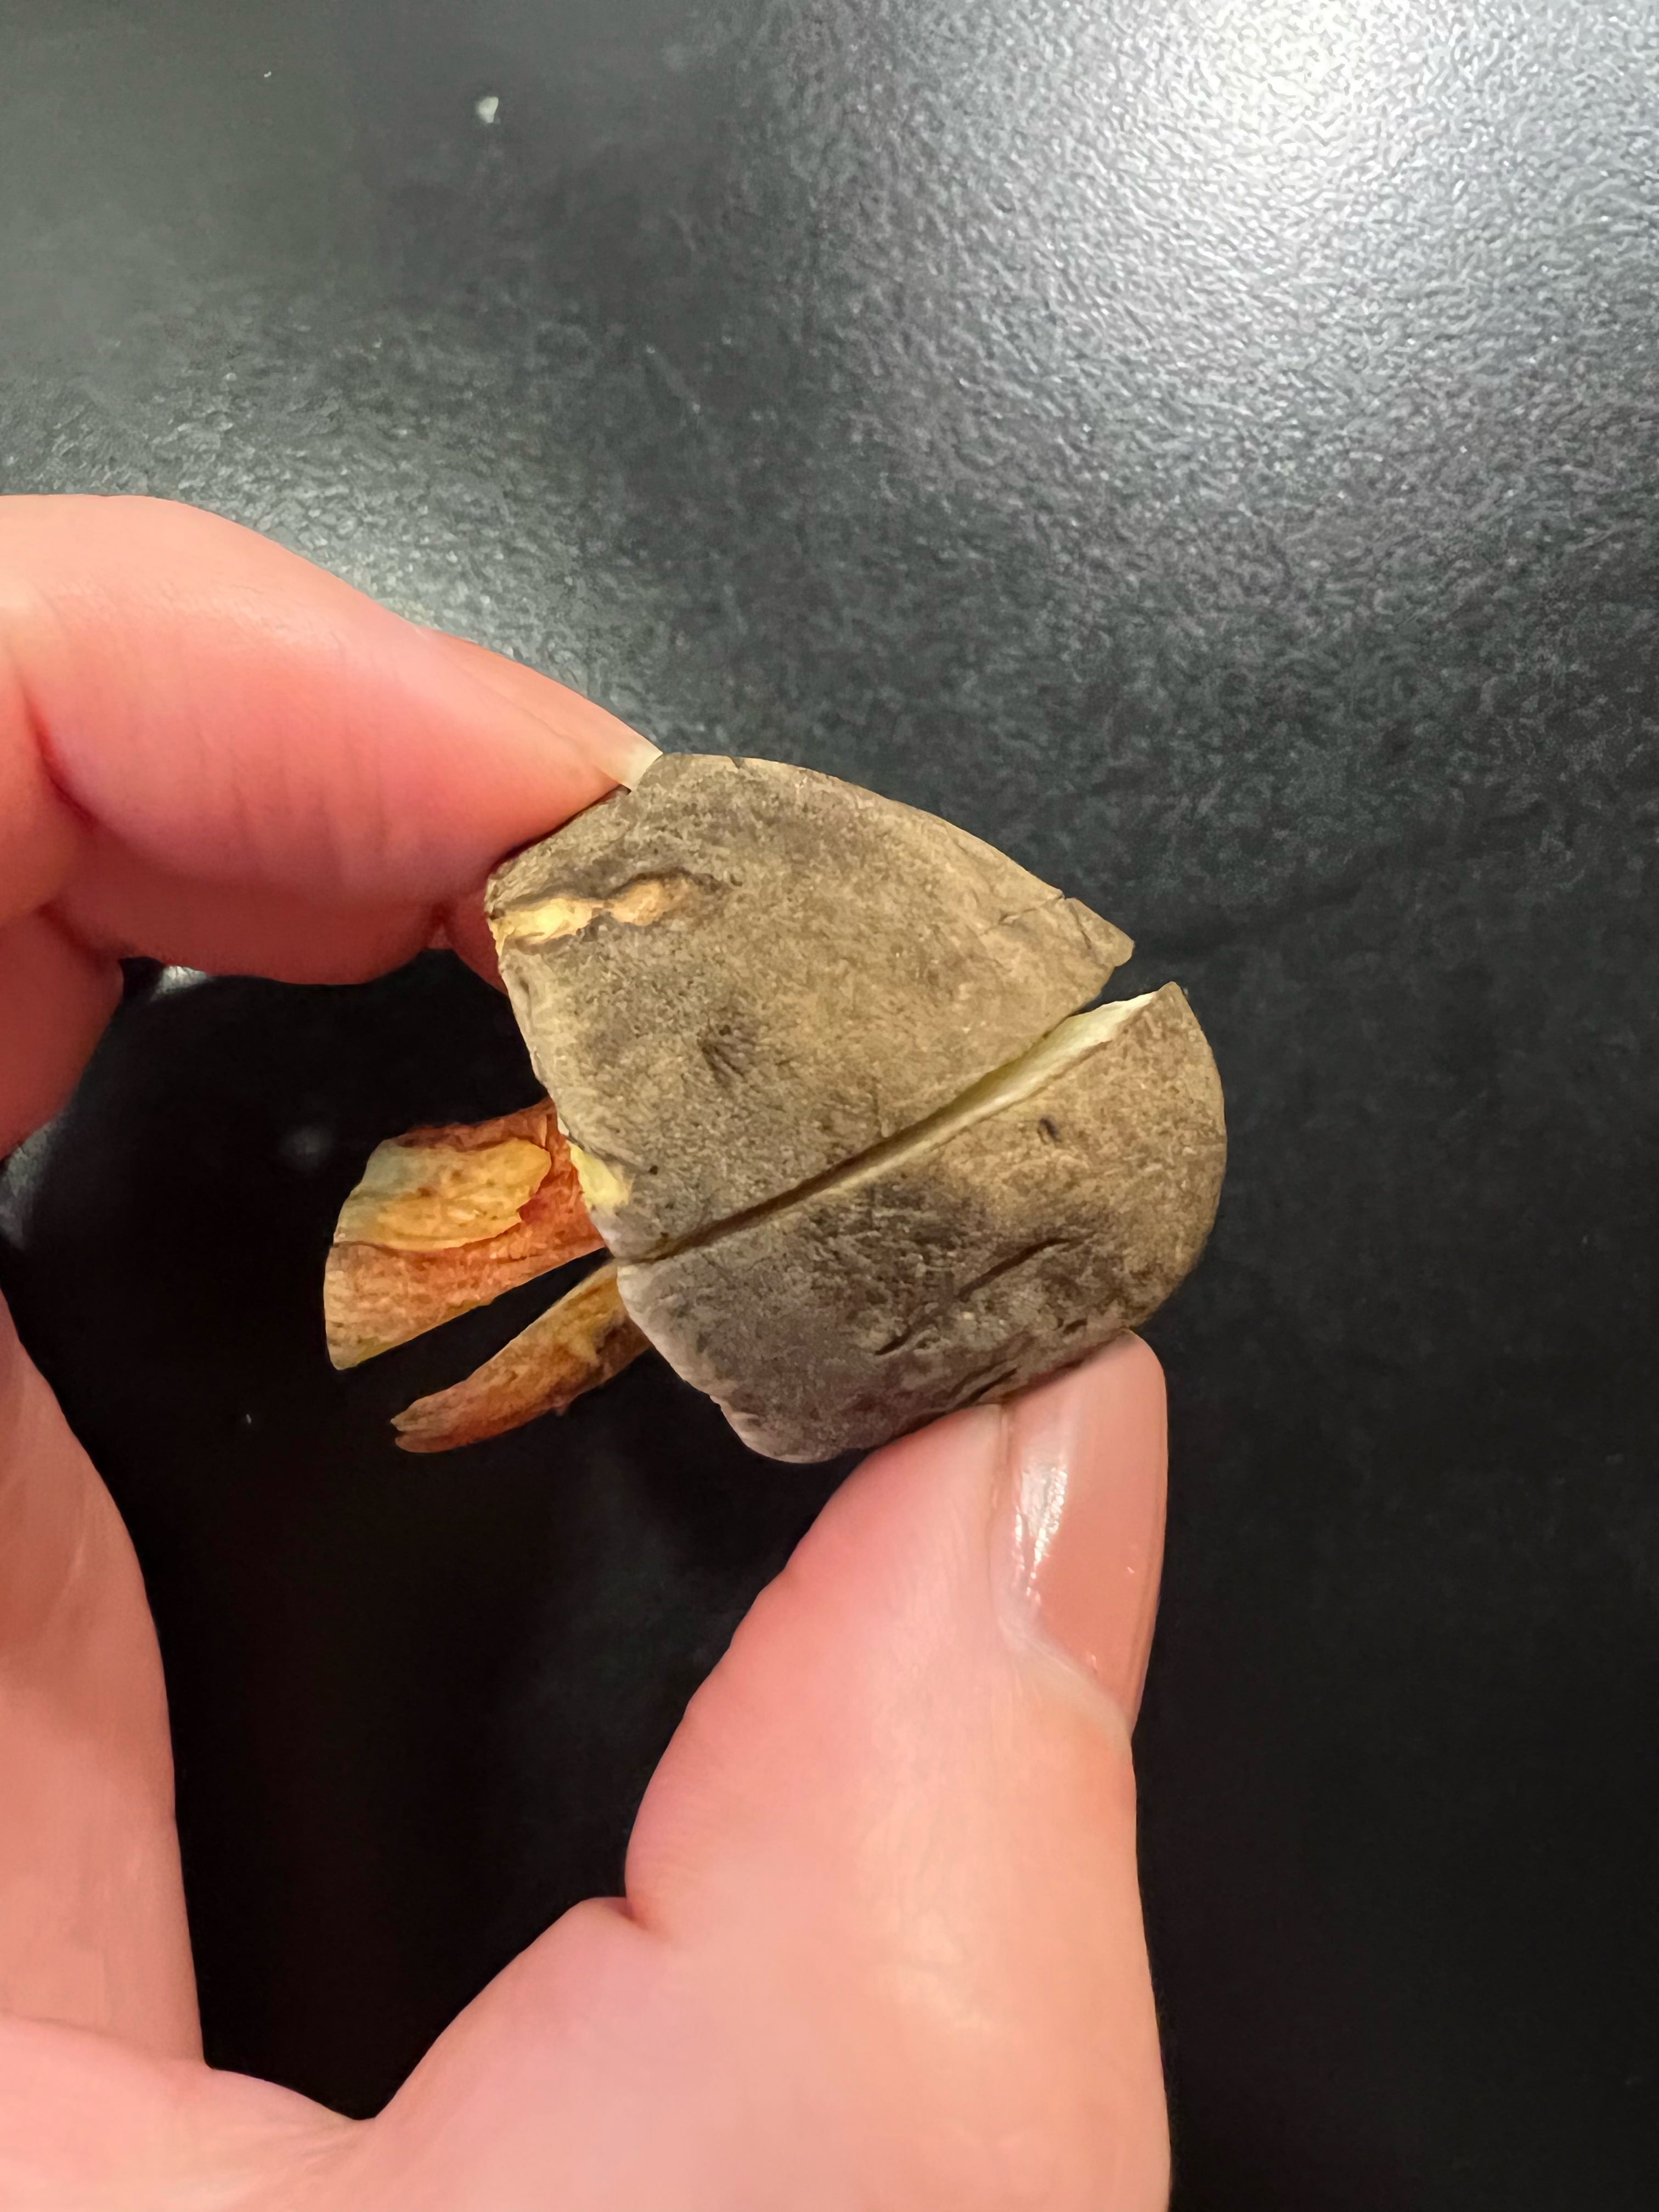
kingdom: Fungi
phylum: Basidiomycota
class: Agaricomycetes
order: Boletales
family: Boletaceae
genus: Xerocomellus
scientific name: Xerocomellus cisalpinus
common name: finsprukken rørhat
